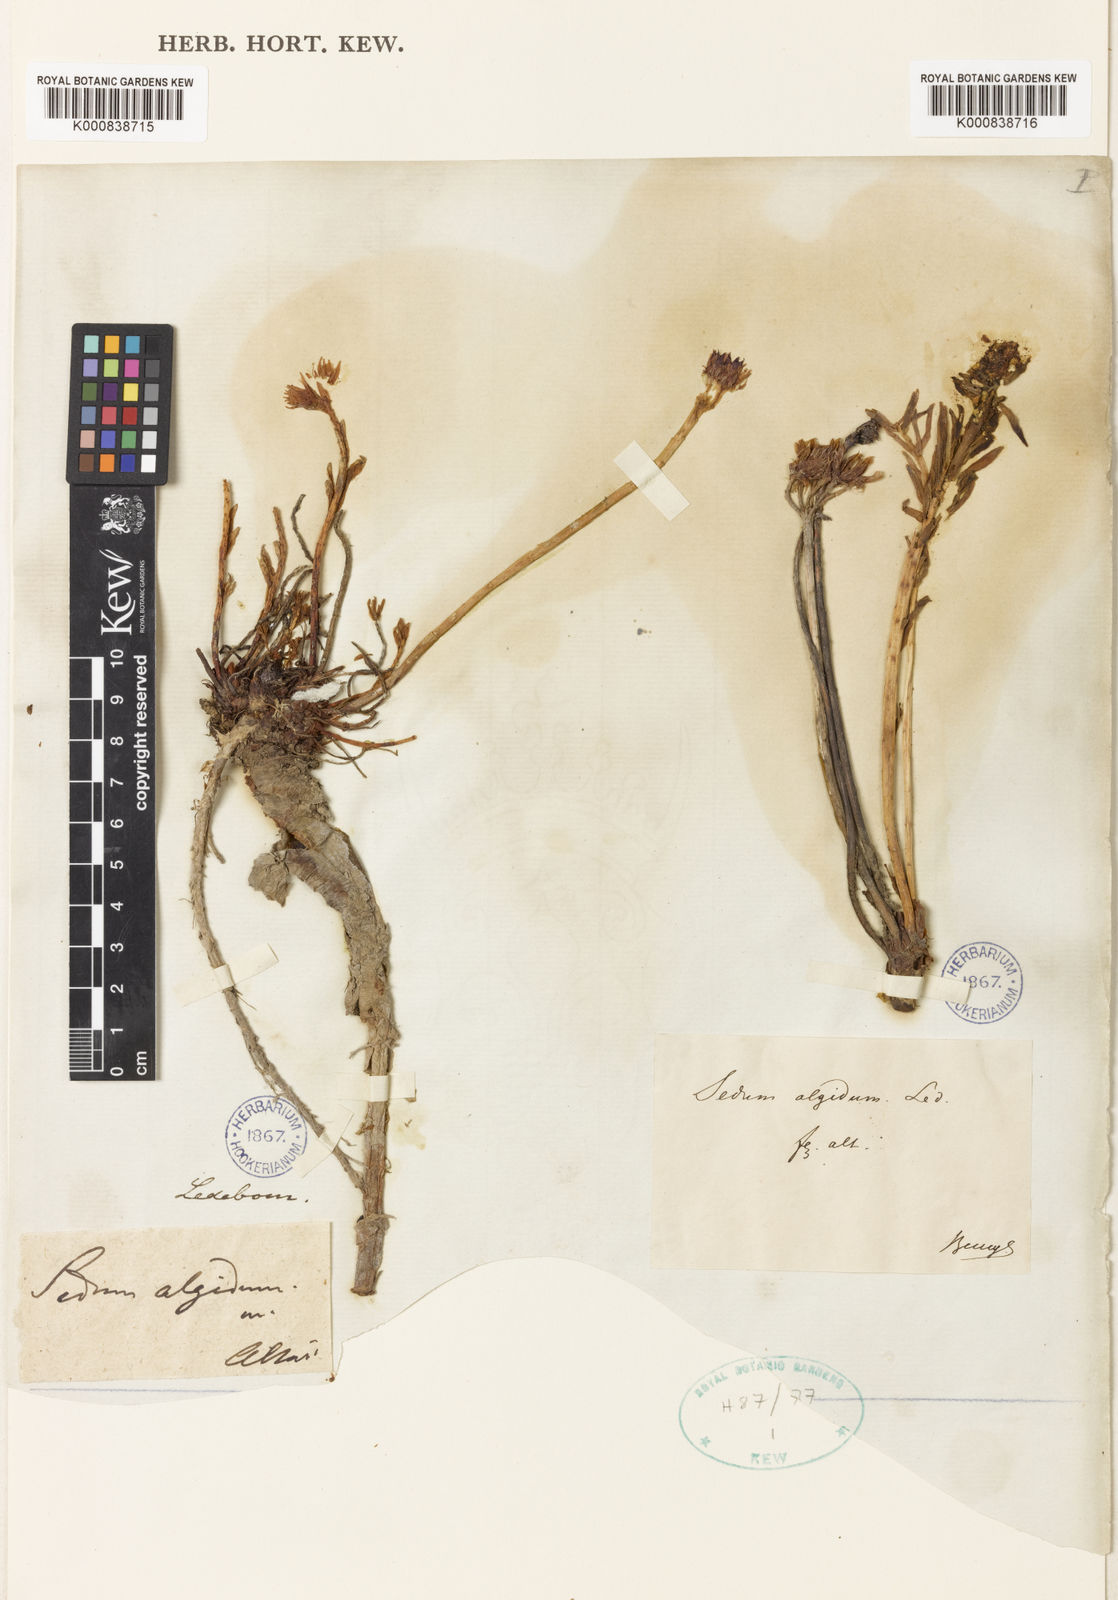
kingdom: Plantae
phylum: Tracheophyta
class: Magnoliopsida
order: Saxifragales
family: Crassulaceae
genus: Rhodiola
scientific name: Rhodiola algida
